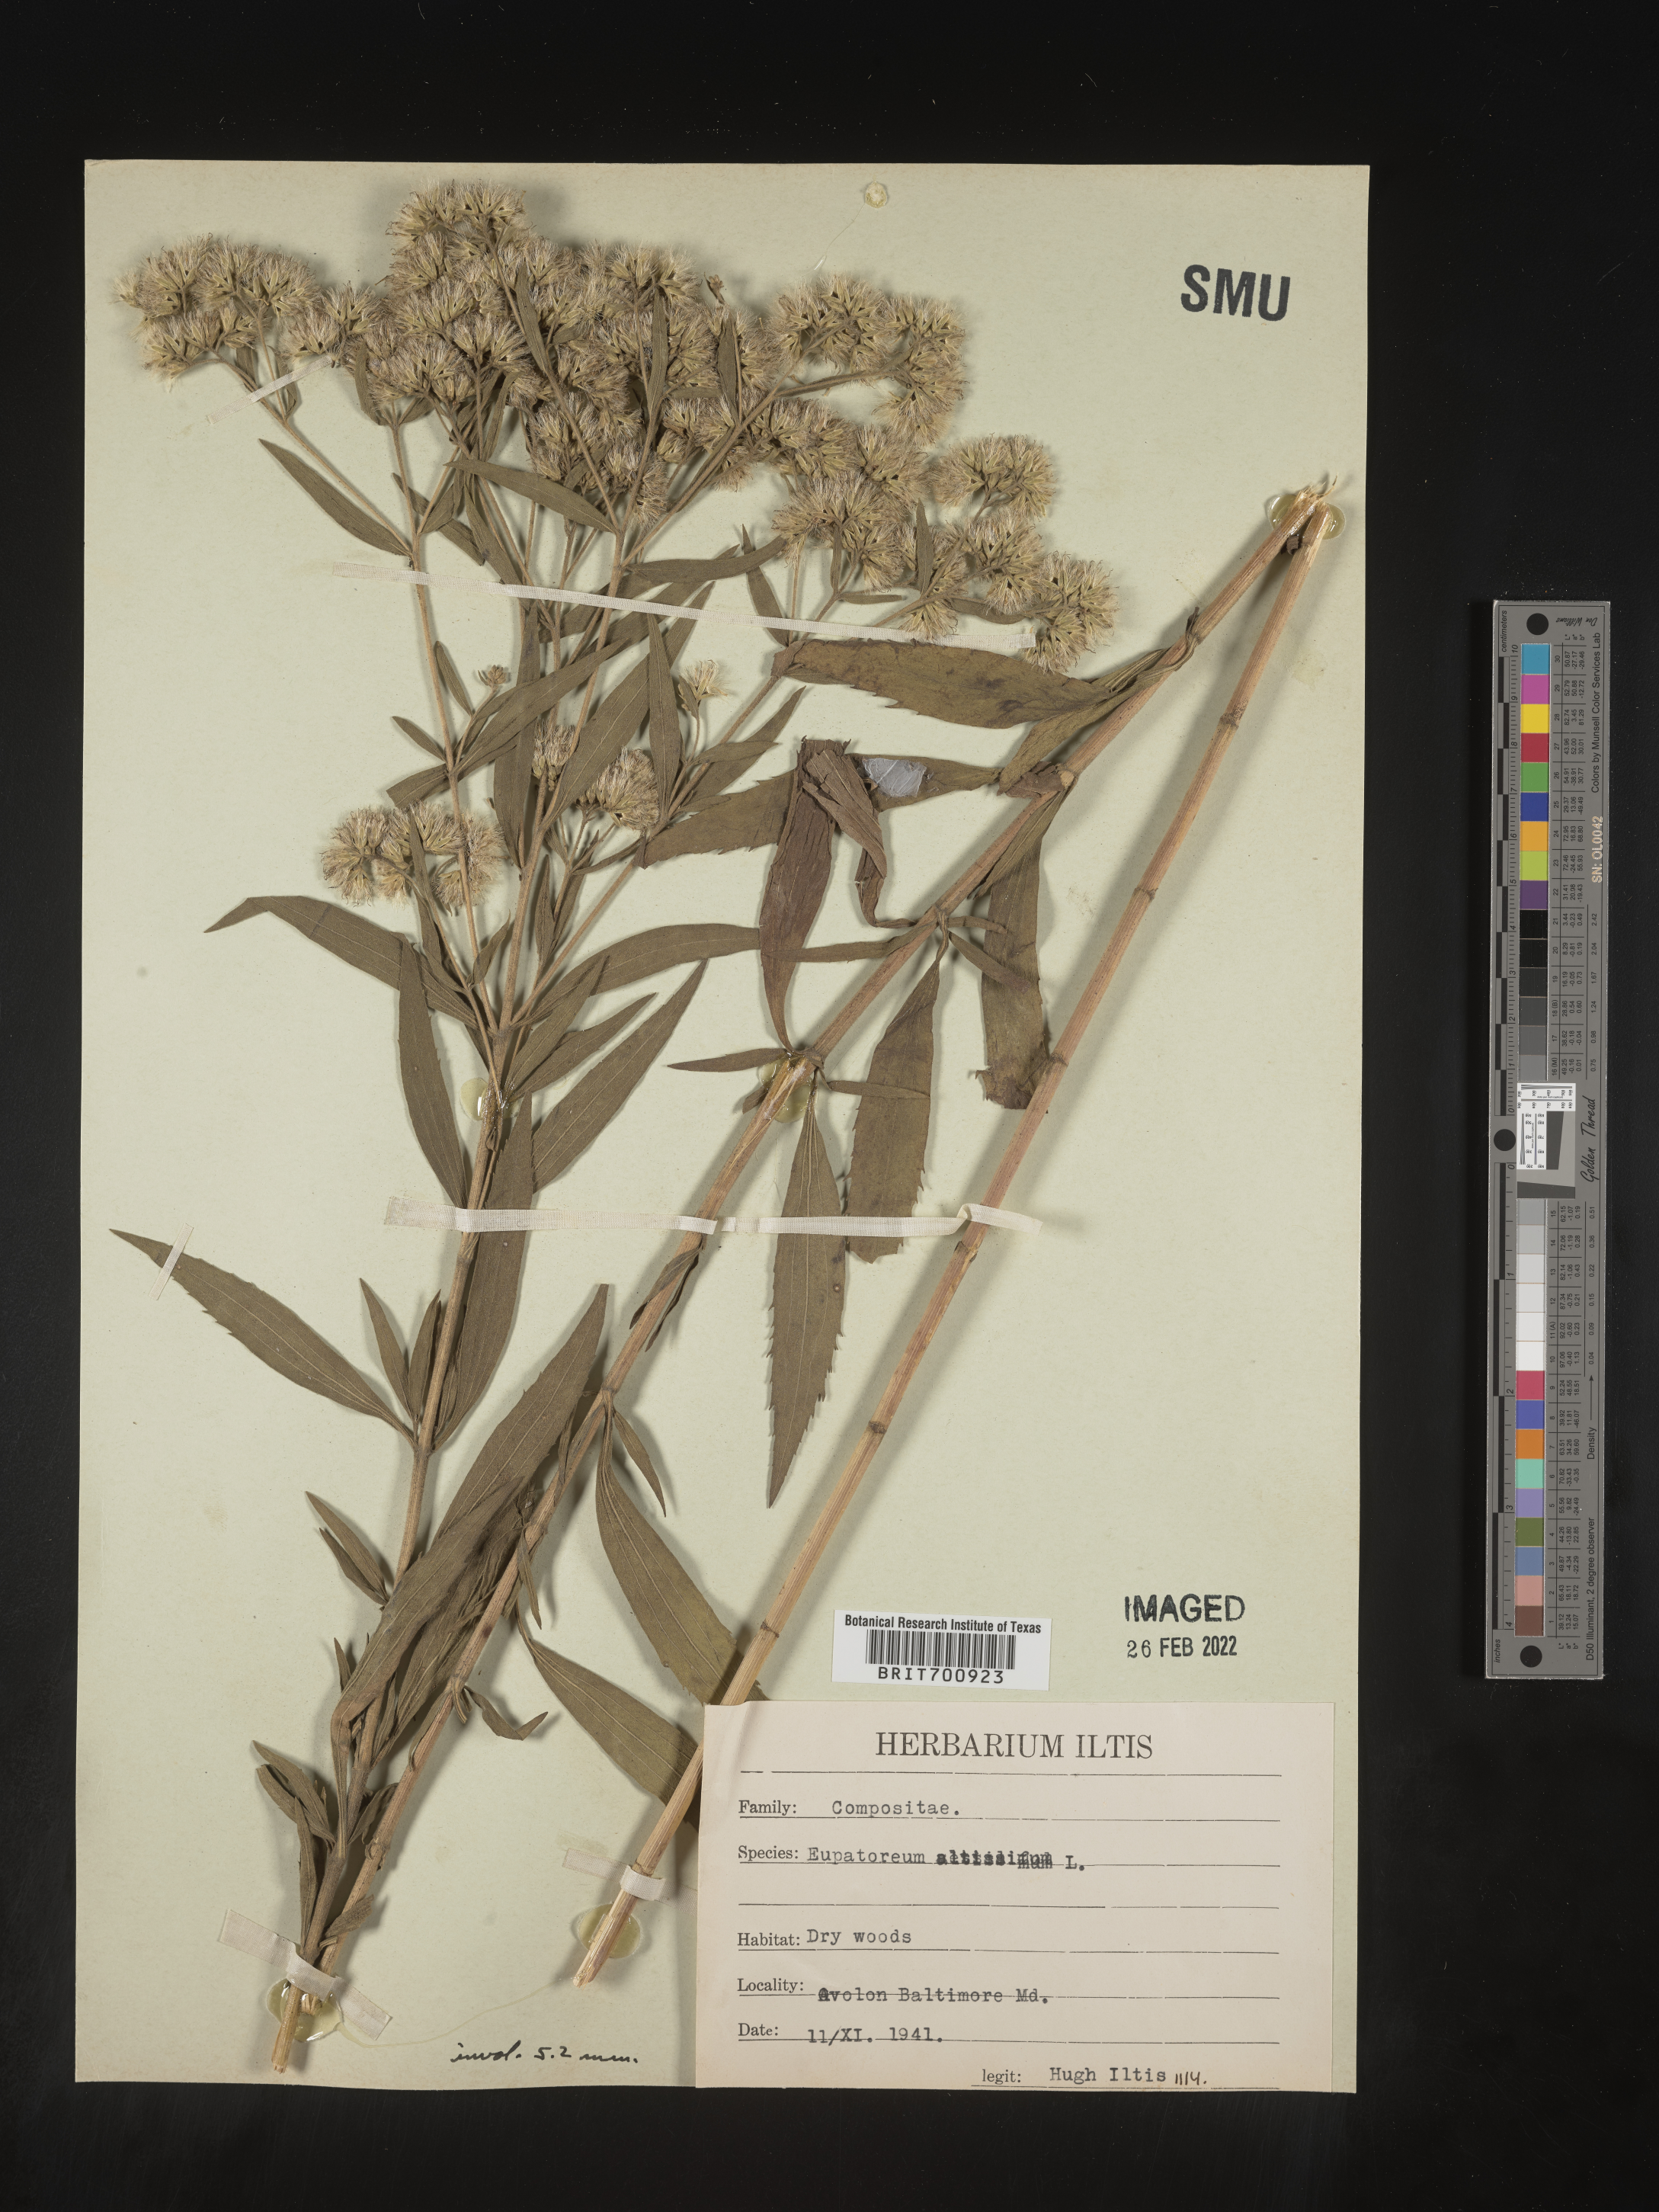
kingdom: Plantae
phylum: Tracheophyta
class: Magnoliopsida
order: Asterales
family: Asteraceae
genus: Eupatorium
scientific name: Eupatorium altissimum
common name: Tall thoroughwort
